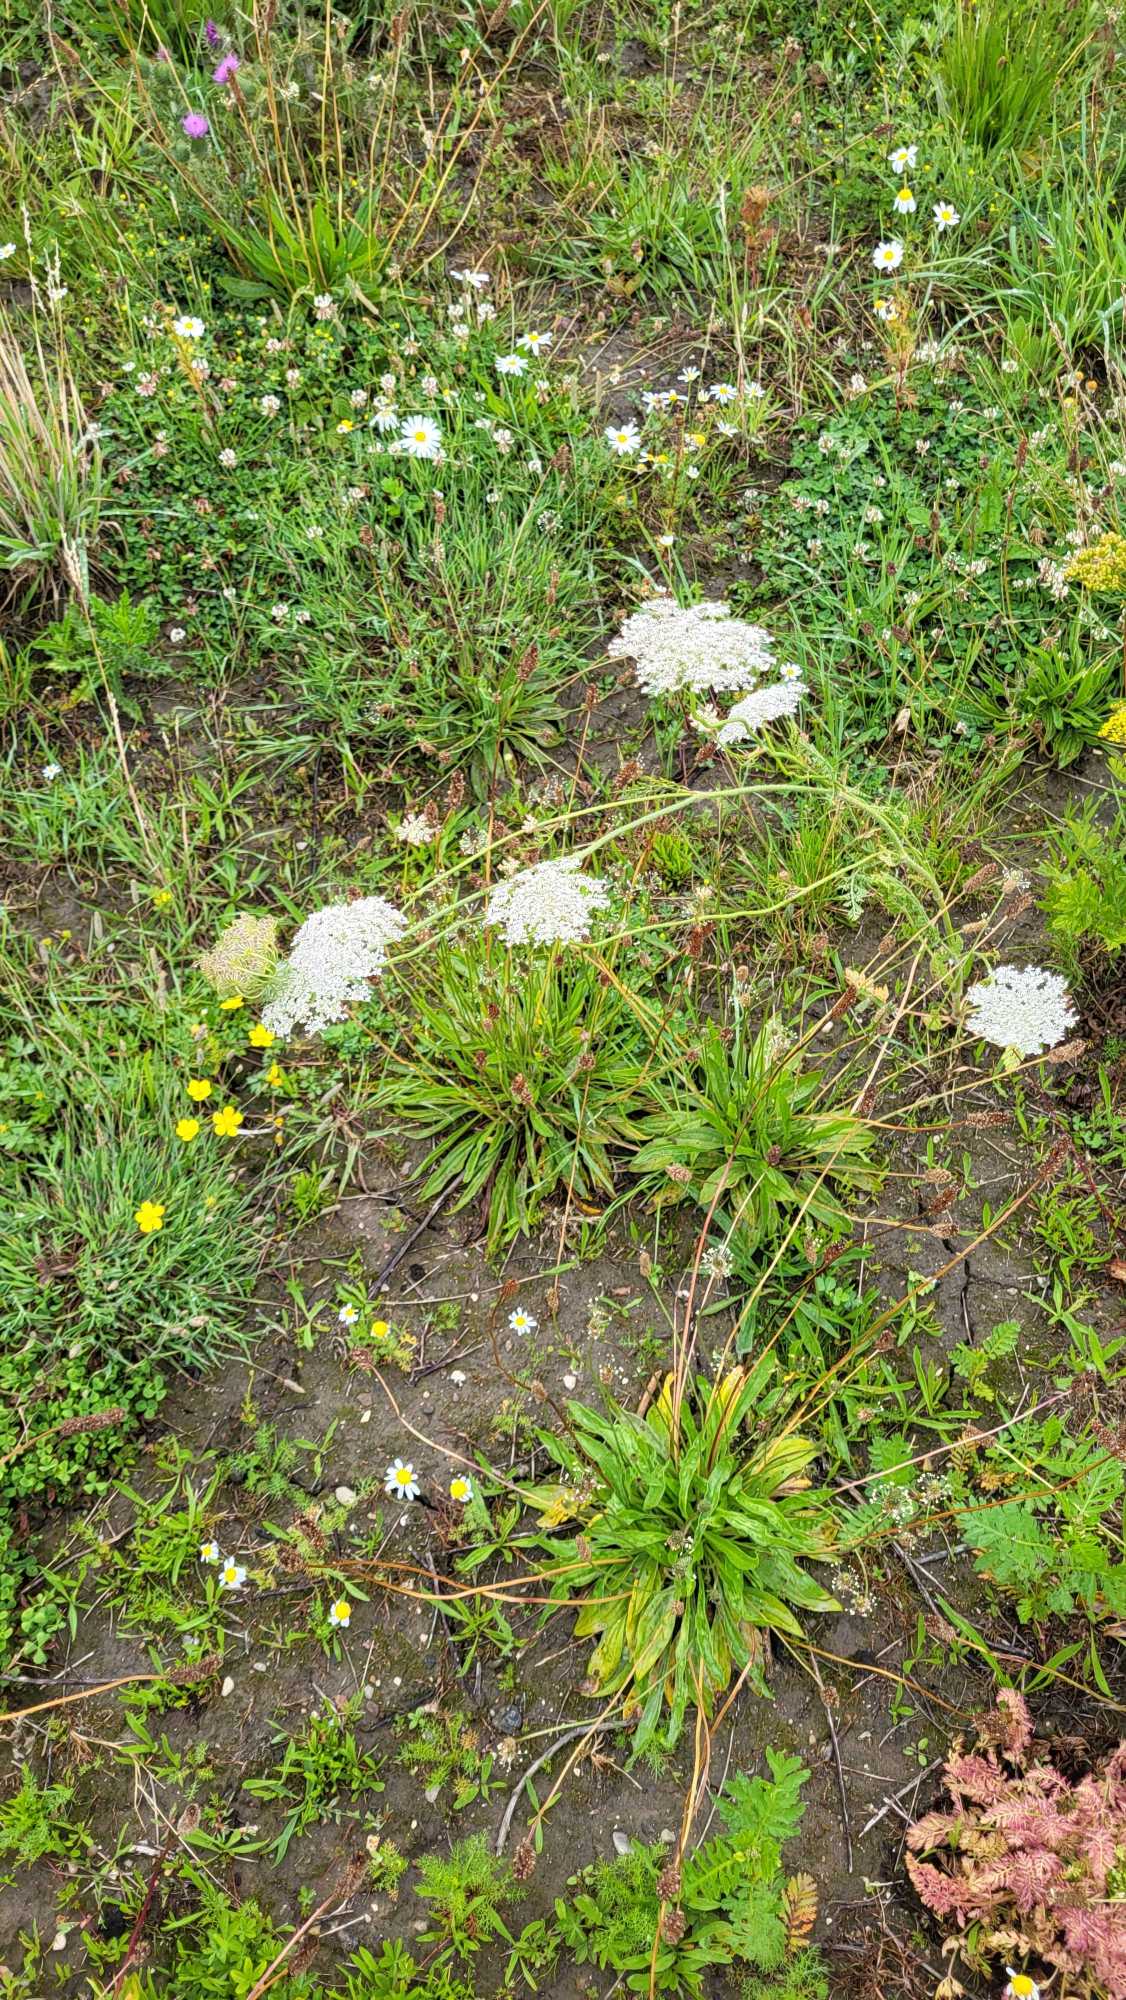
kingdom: Plantae
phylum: Tracheophyta
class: Magnoliopsida
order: Apiales
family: Apiaceae
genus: Daucus
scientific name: Daucus carota
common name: Gulerod
